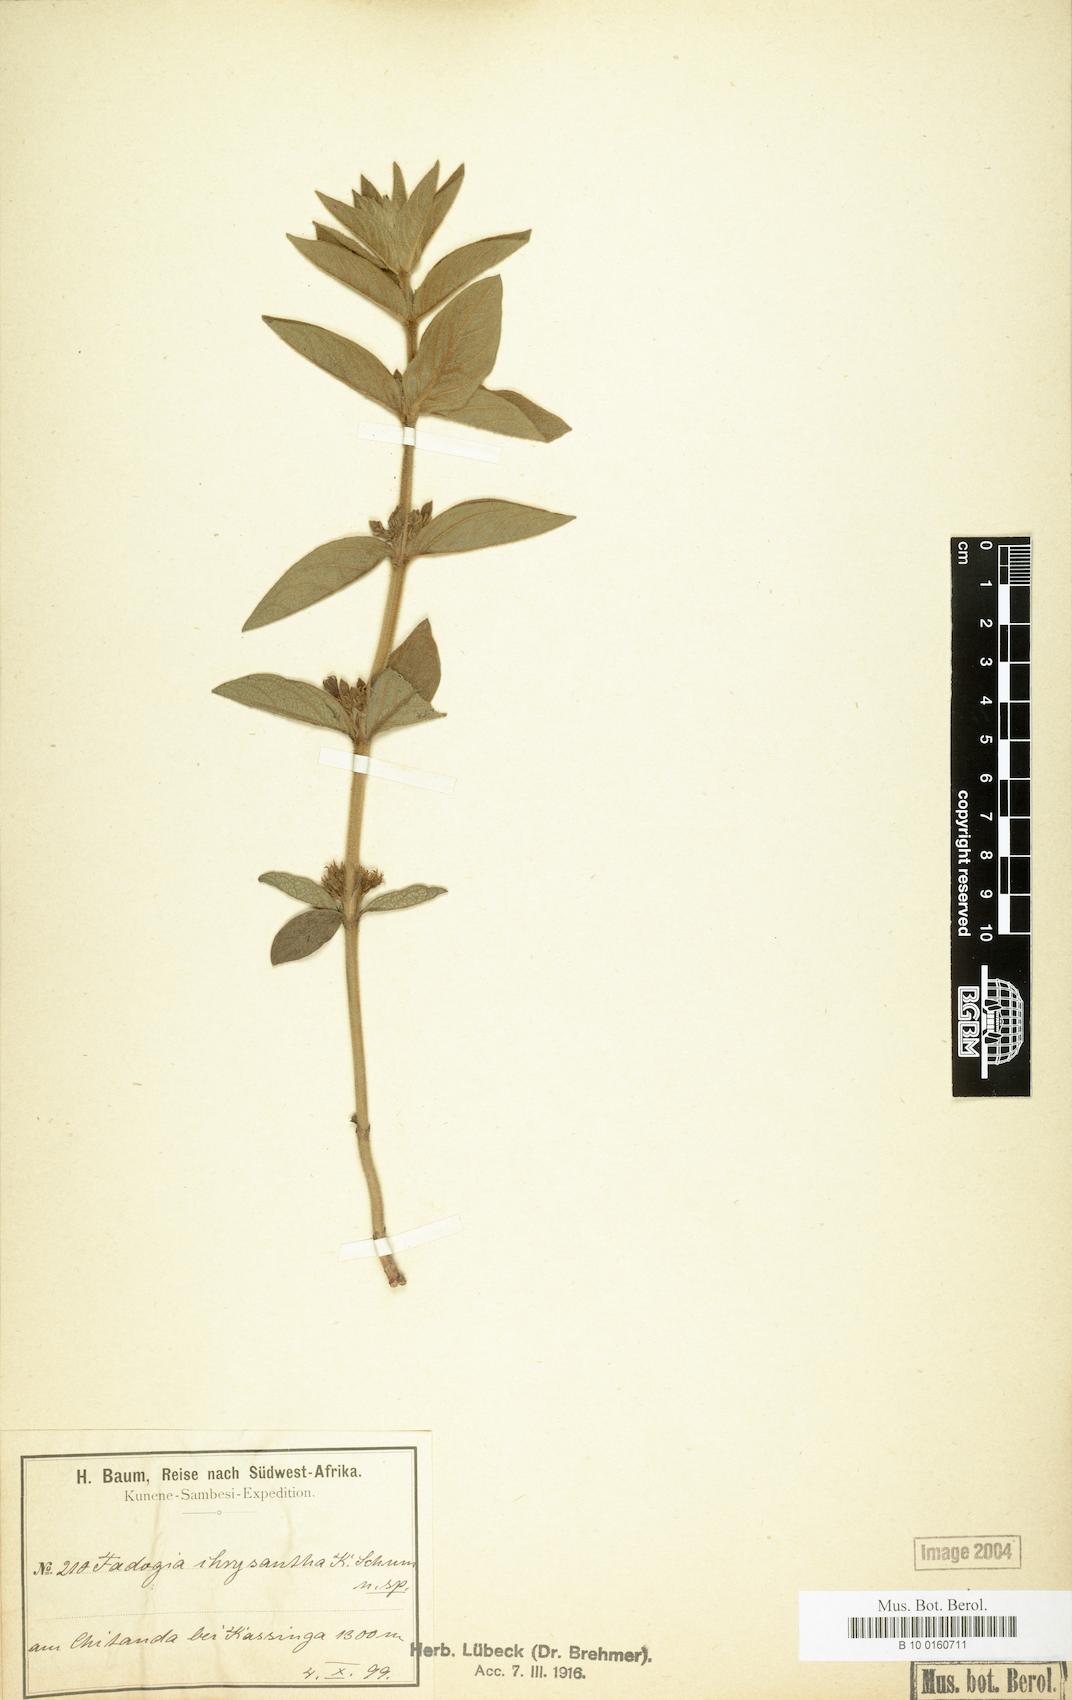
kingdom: Plantae
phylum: Tracheophyta
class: Magnoliopsida
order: Gentianales
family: Rubiaceae
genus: Fadogia
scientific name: Fadogia chrysantha
